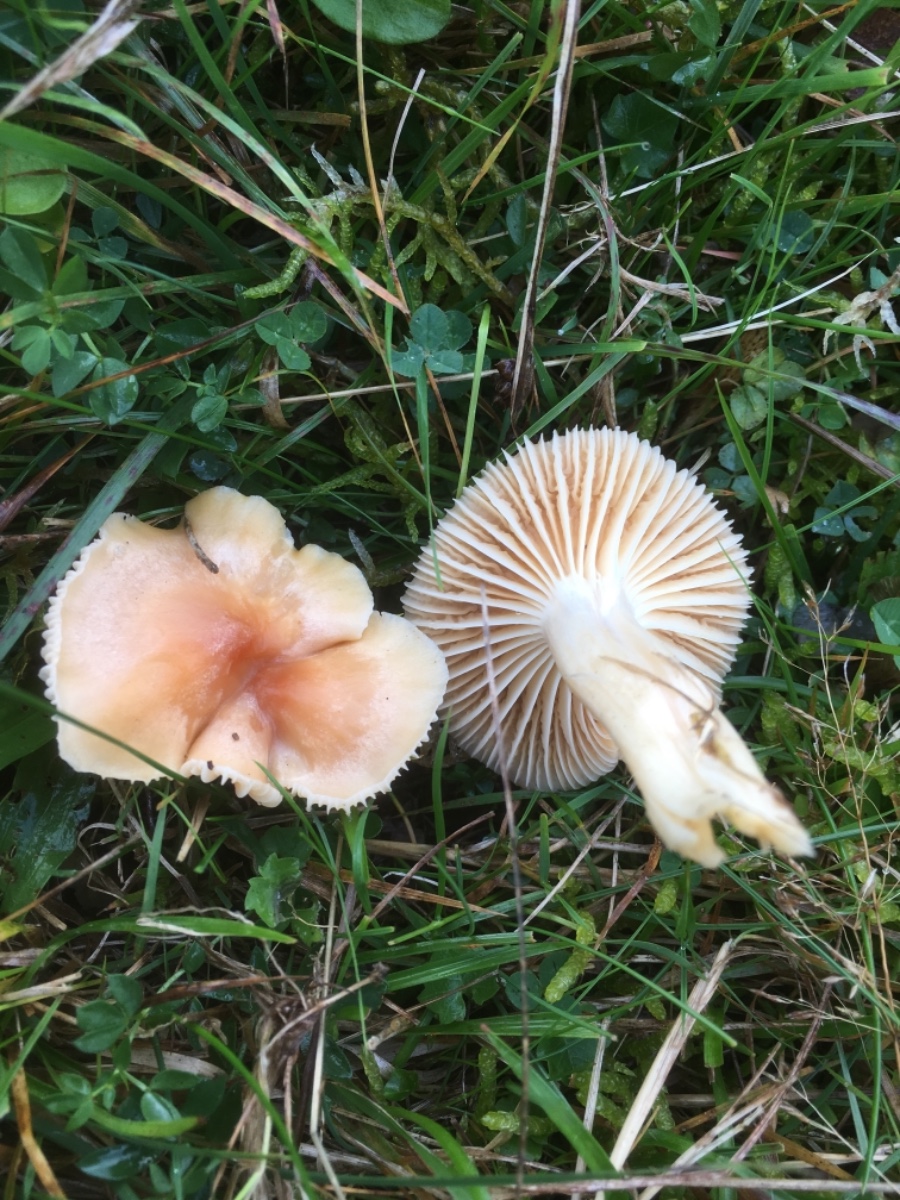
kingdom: Fungi
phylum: Basidiomycota
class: Agaricomycetes
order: Agaricales
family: Hygrophoraceae
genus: Cuphophyllus
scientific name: Cuphophyllus pratensis
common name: eng-vokshat
